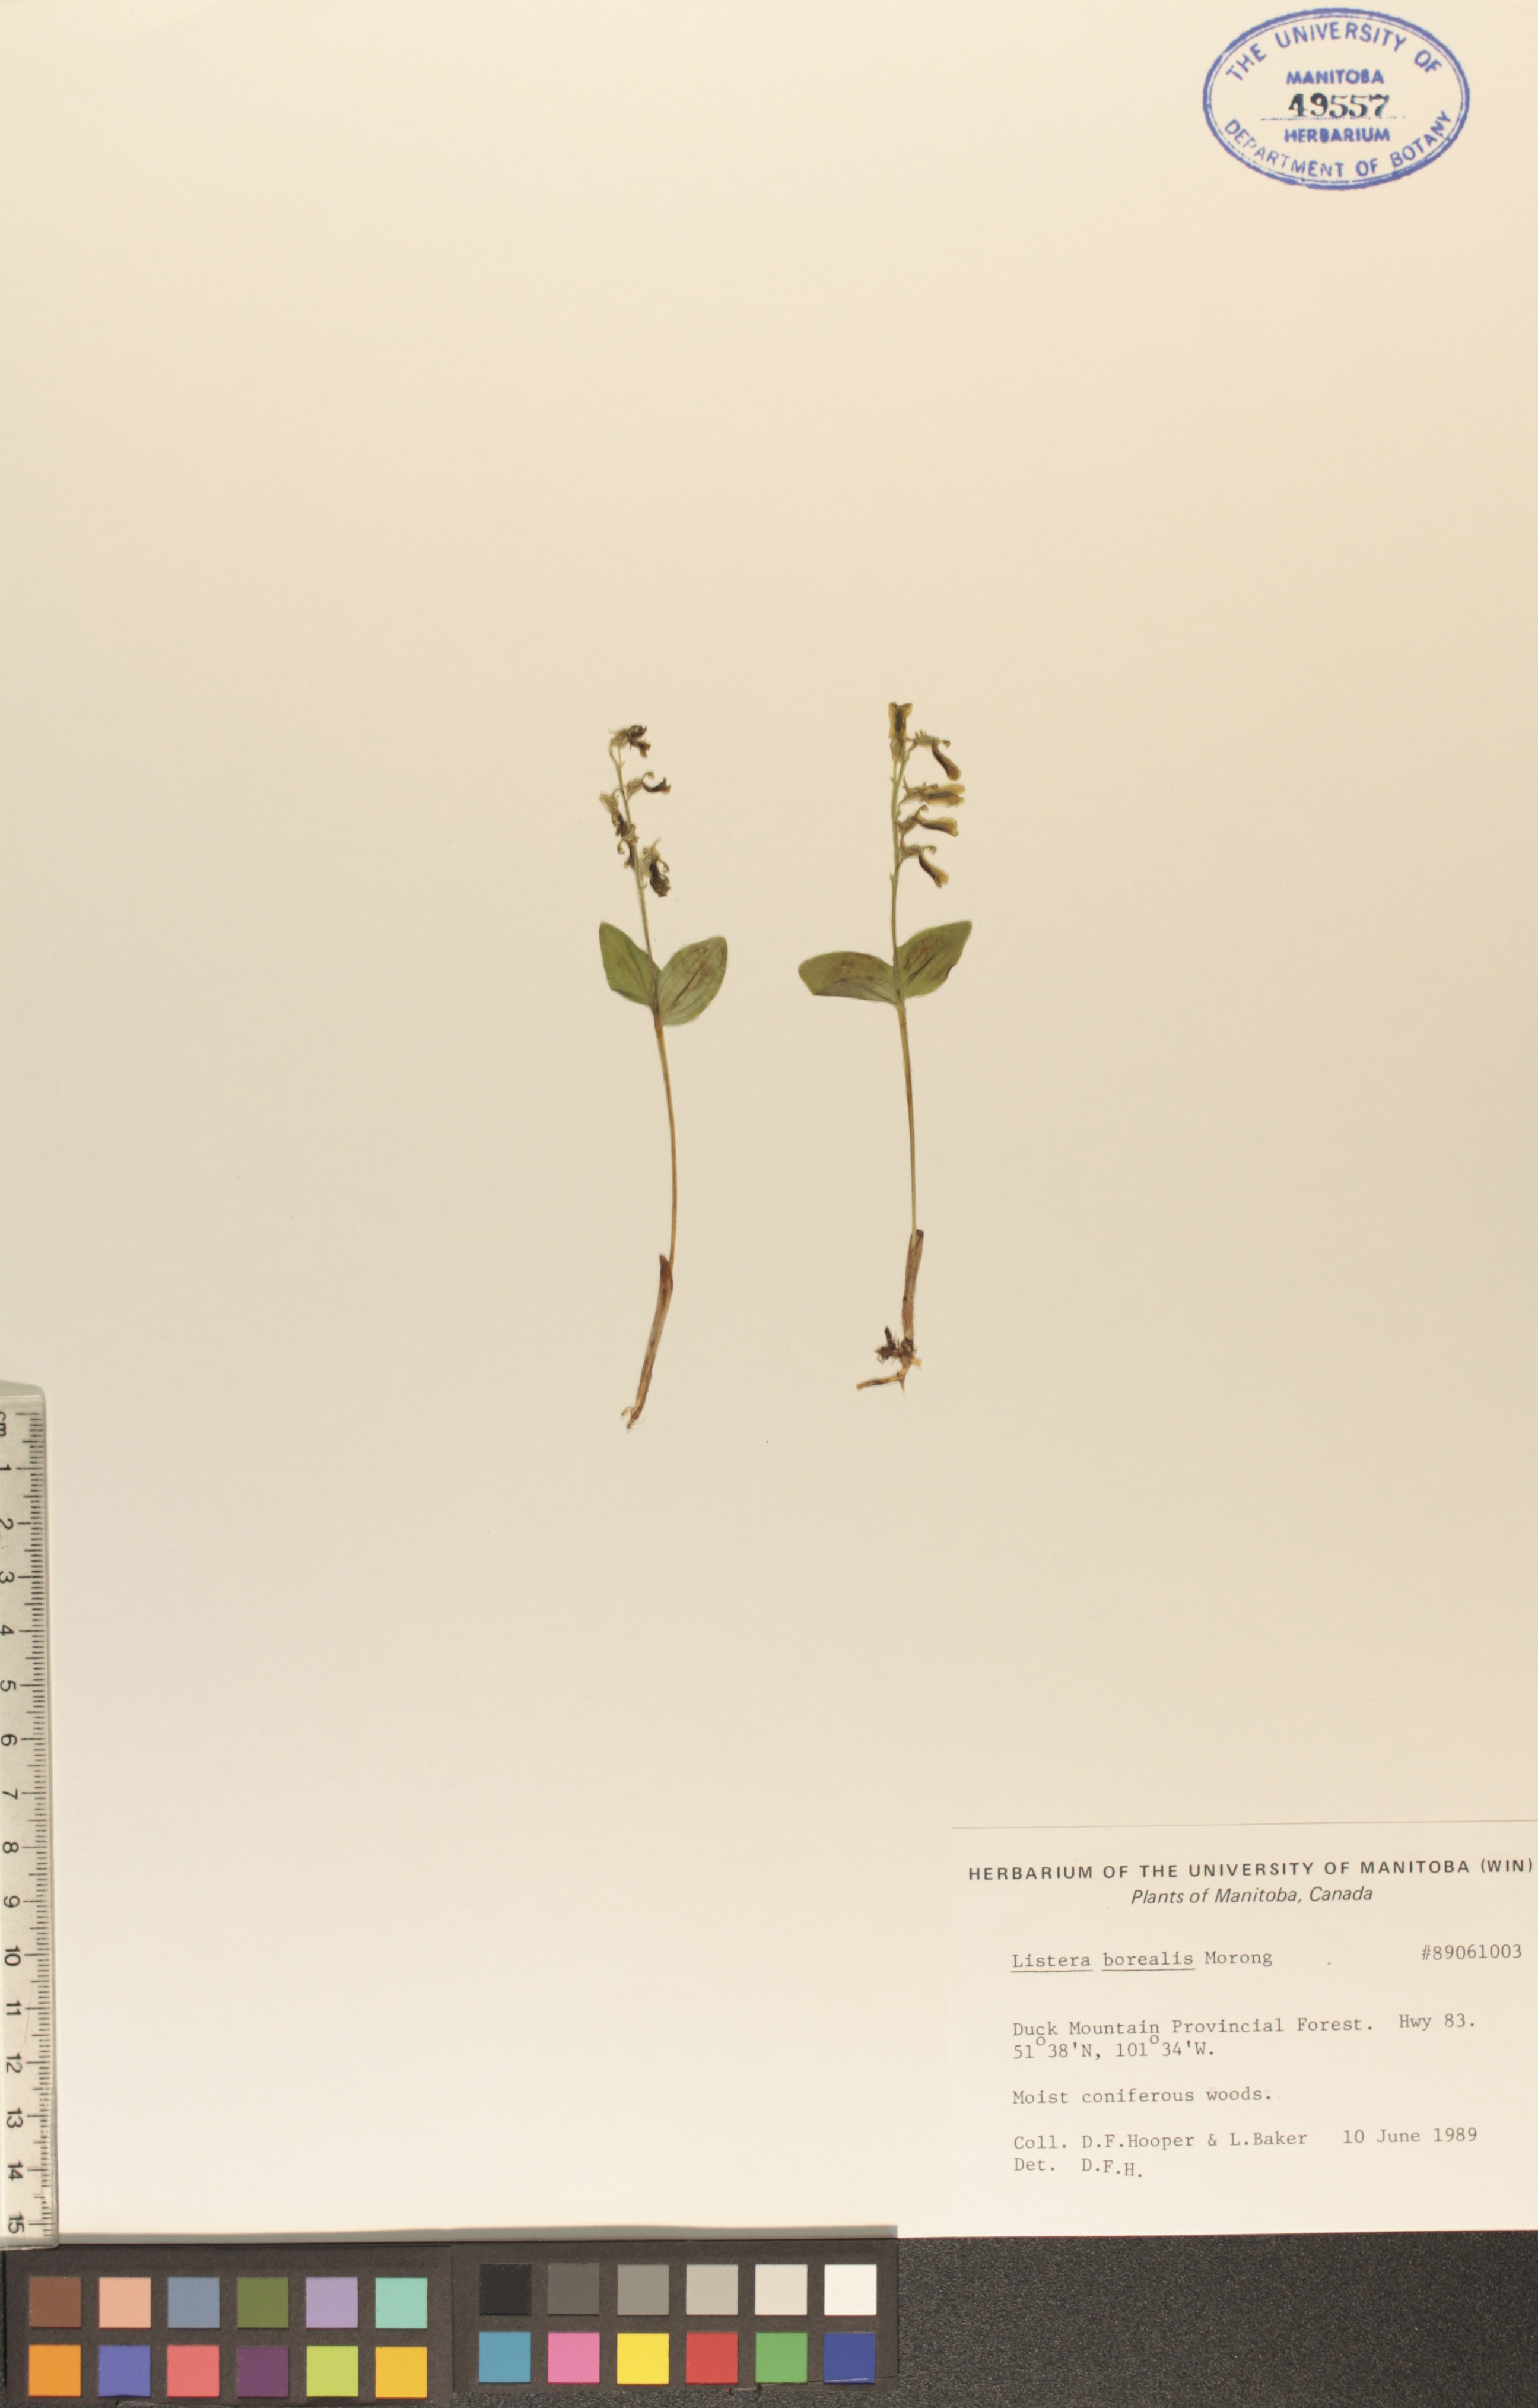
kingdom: Plantae
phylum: Tracheophyta
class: Liliopsida
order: Asparagales
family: Orchidaceae
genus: Neottia
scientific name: Neottia borealis
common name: Northern twayblade
